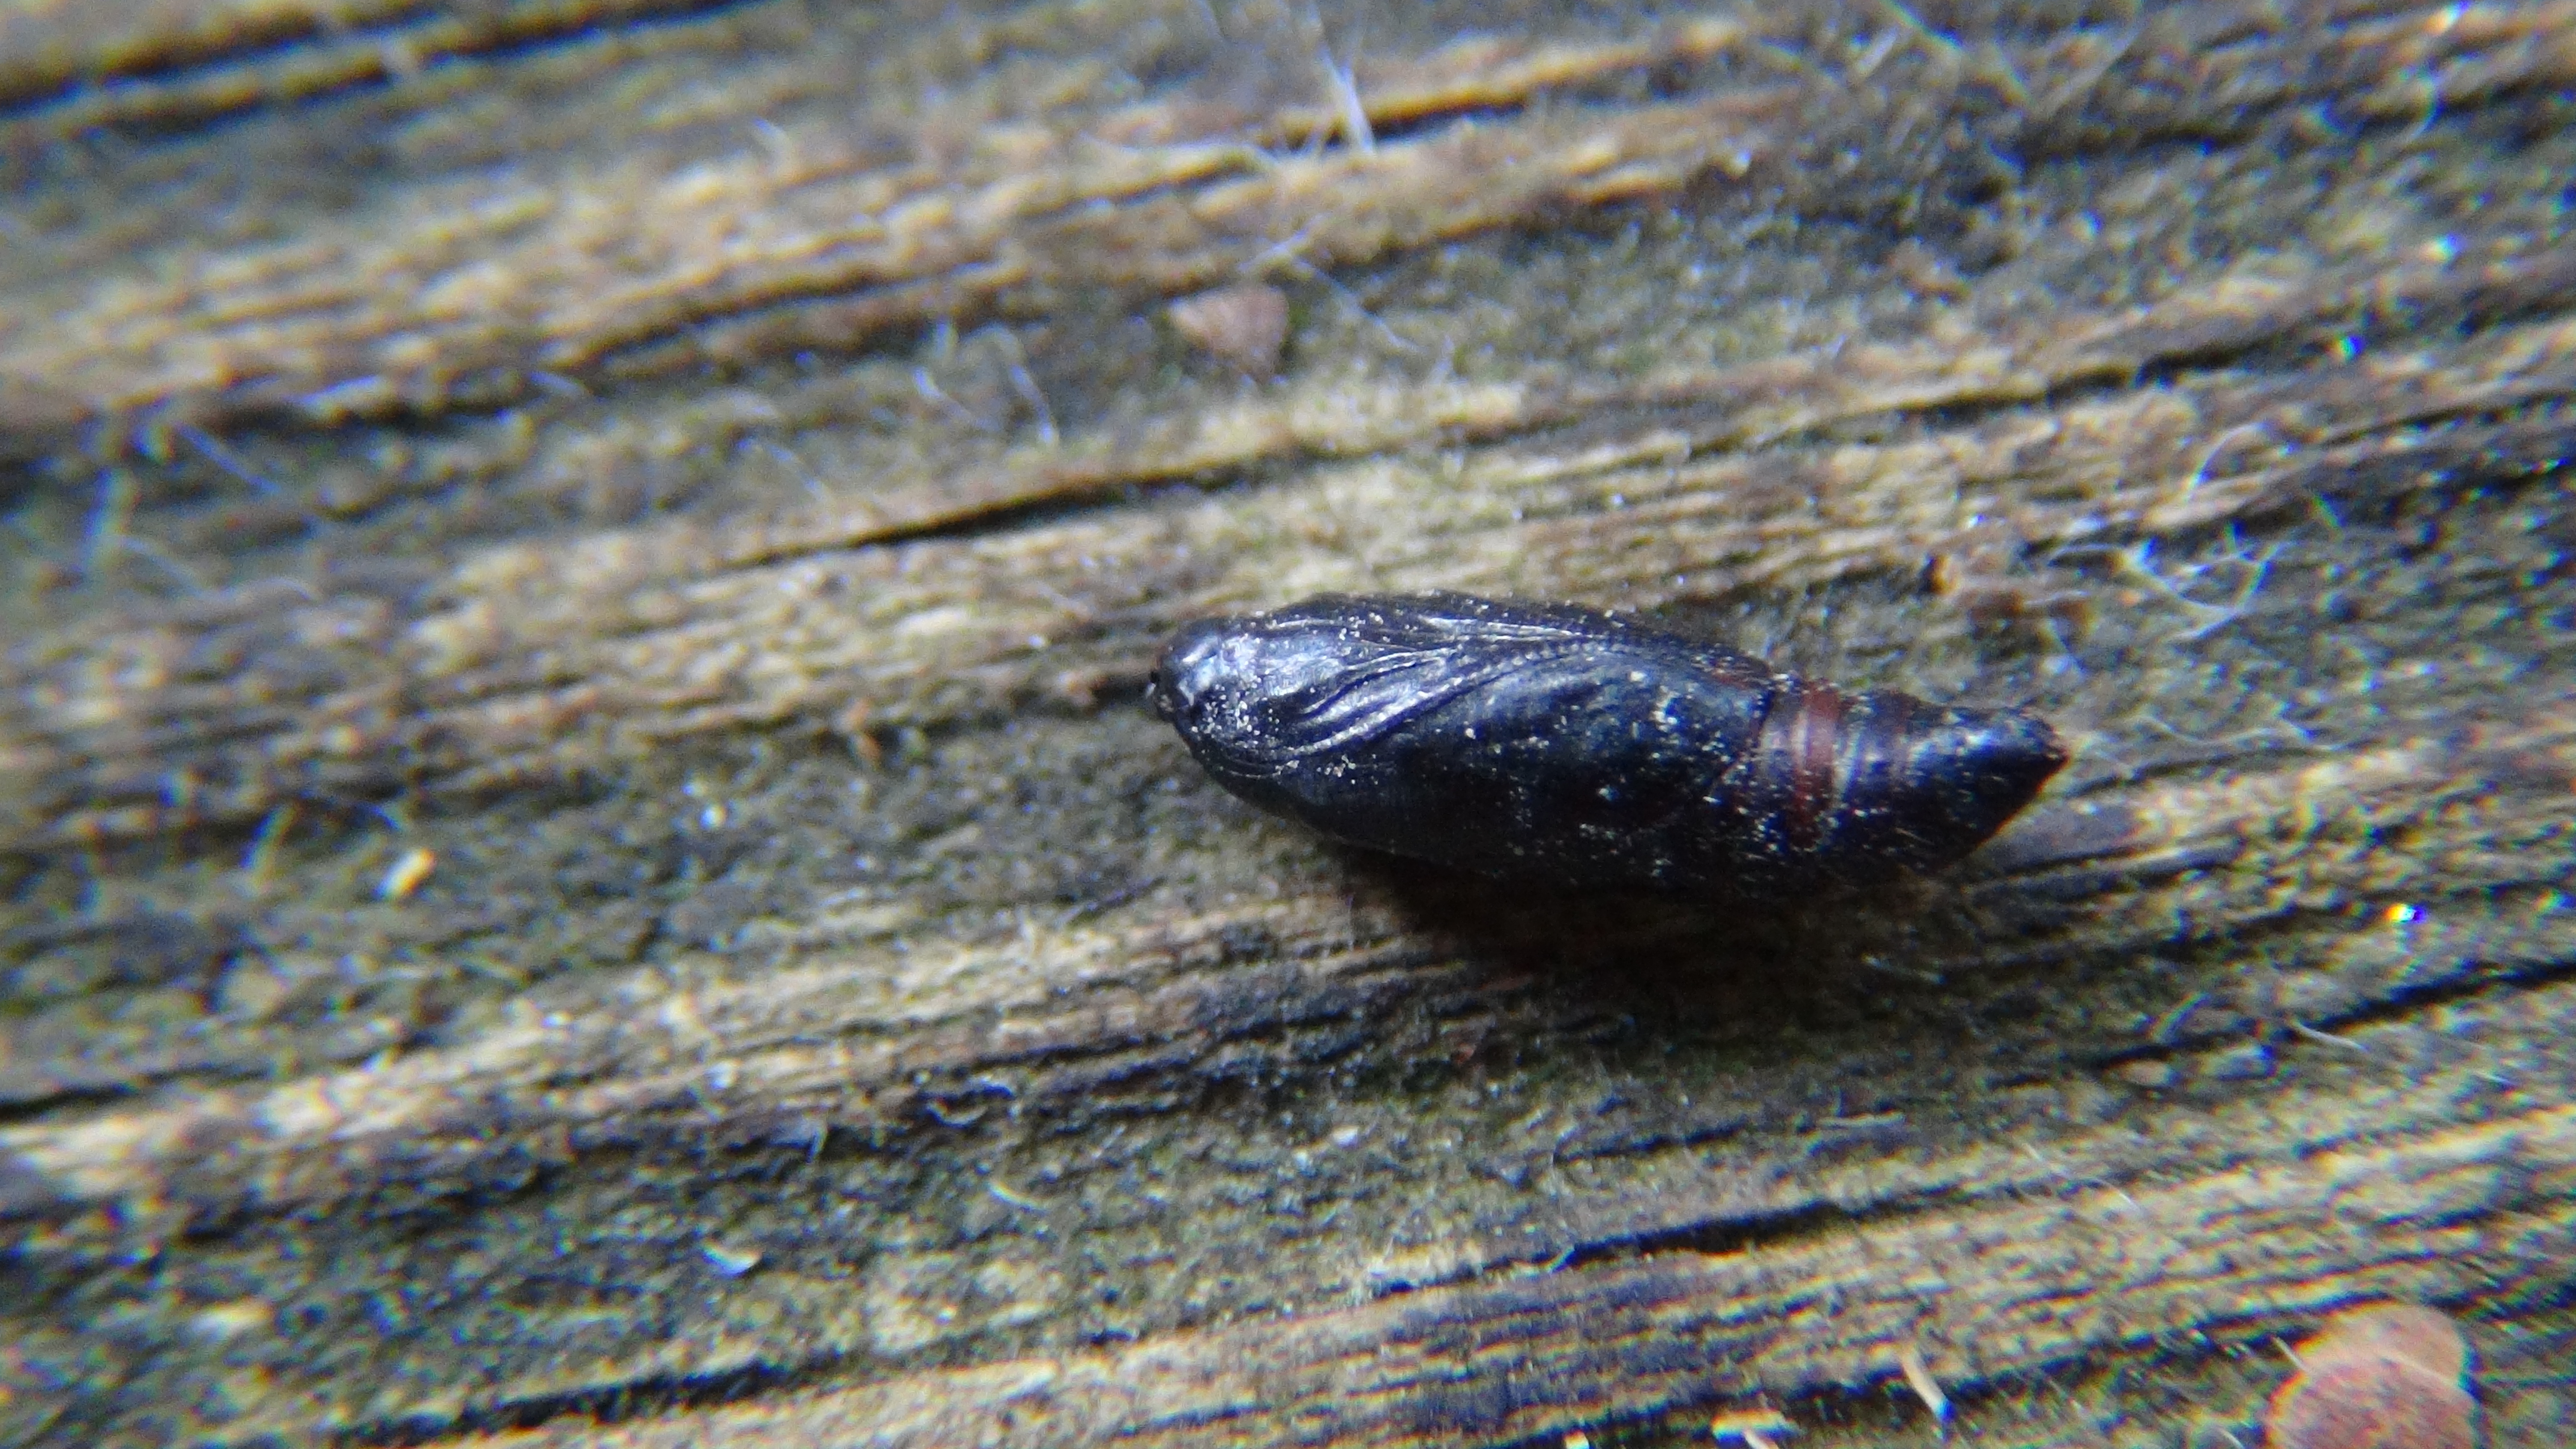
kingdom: Animalia
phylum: Arthropoda
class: Insecta
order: Lepidoptera
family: Tortricidae
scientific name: Tortricidae
